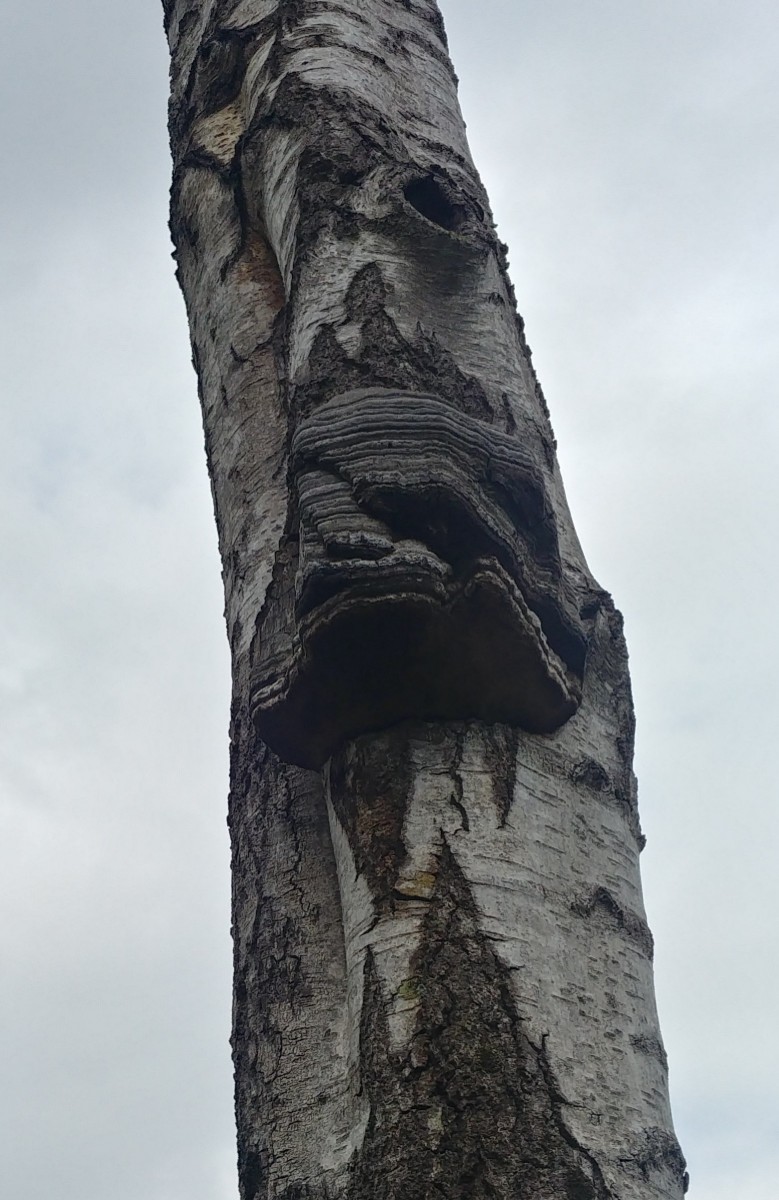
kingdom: Fungi
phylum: Basidiomycota
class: Agaricomycetes
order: Polyporales
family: Polyporaceae
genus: Fomes
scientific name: Fomes fomentarius
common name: tøndersvamp
